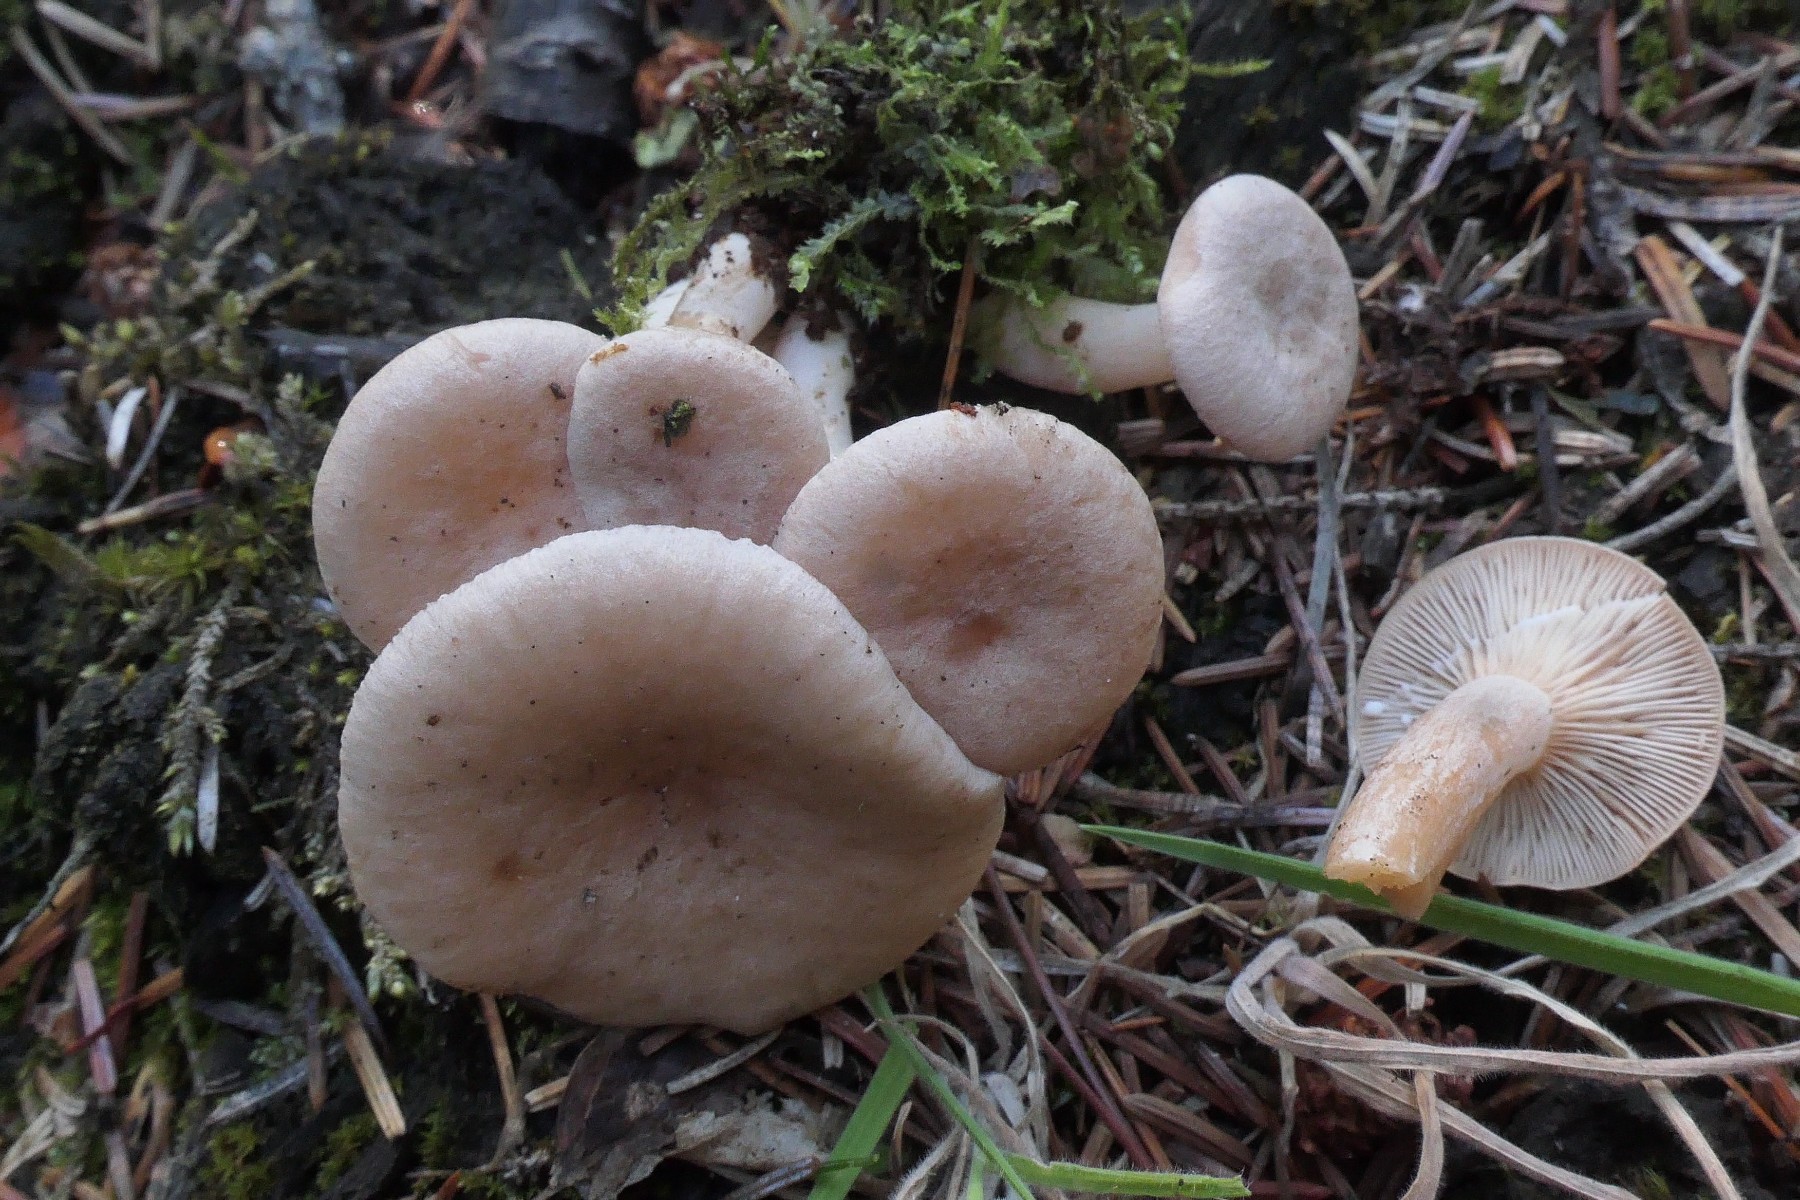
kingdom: Fungi
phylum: Basidiomycota
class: Agaricomycetes
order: Russulales
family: Russulaceae
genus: Lactarius
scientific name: Lactarius glyciosmus
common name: kokos-mælkehat
